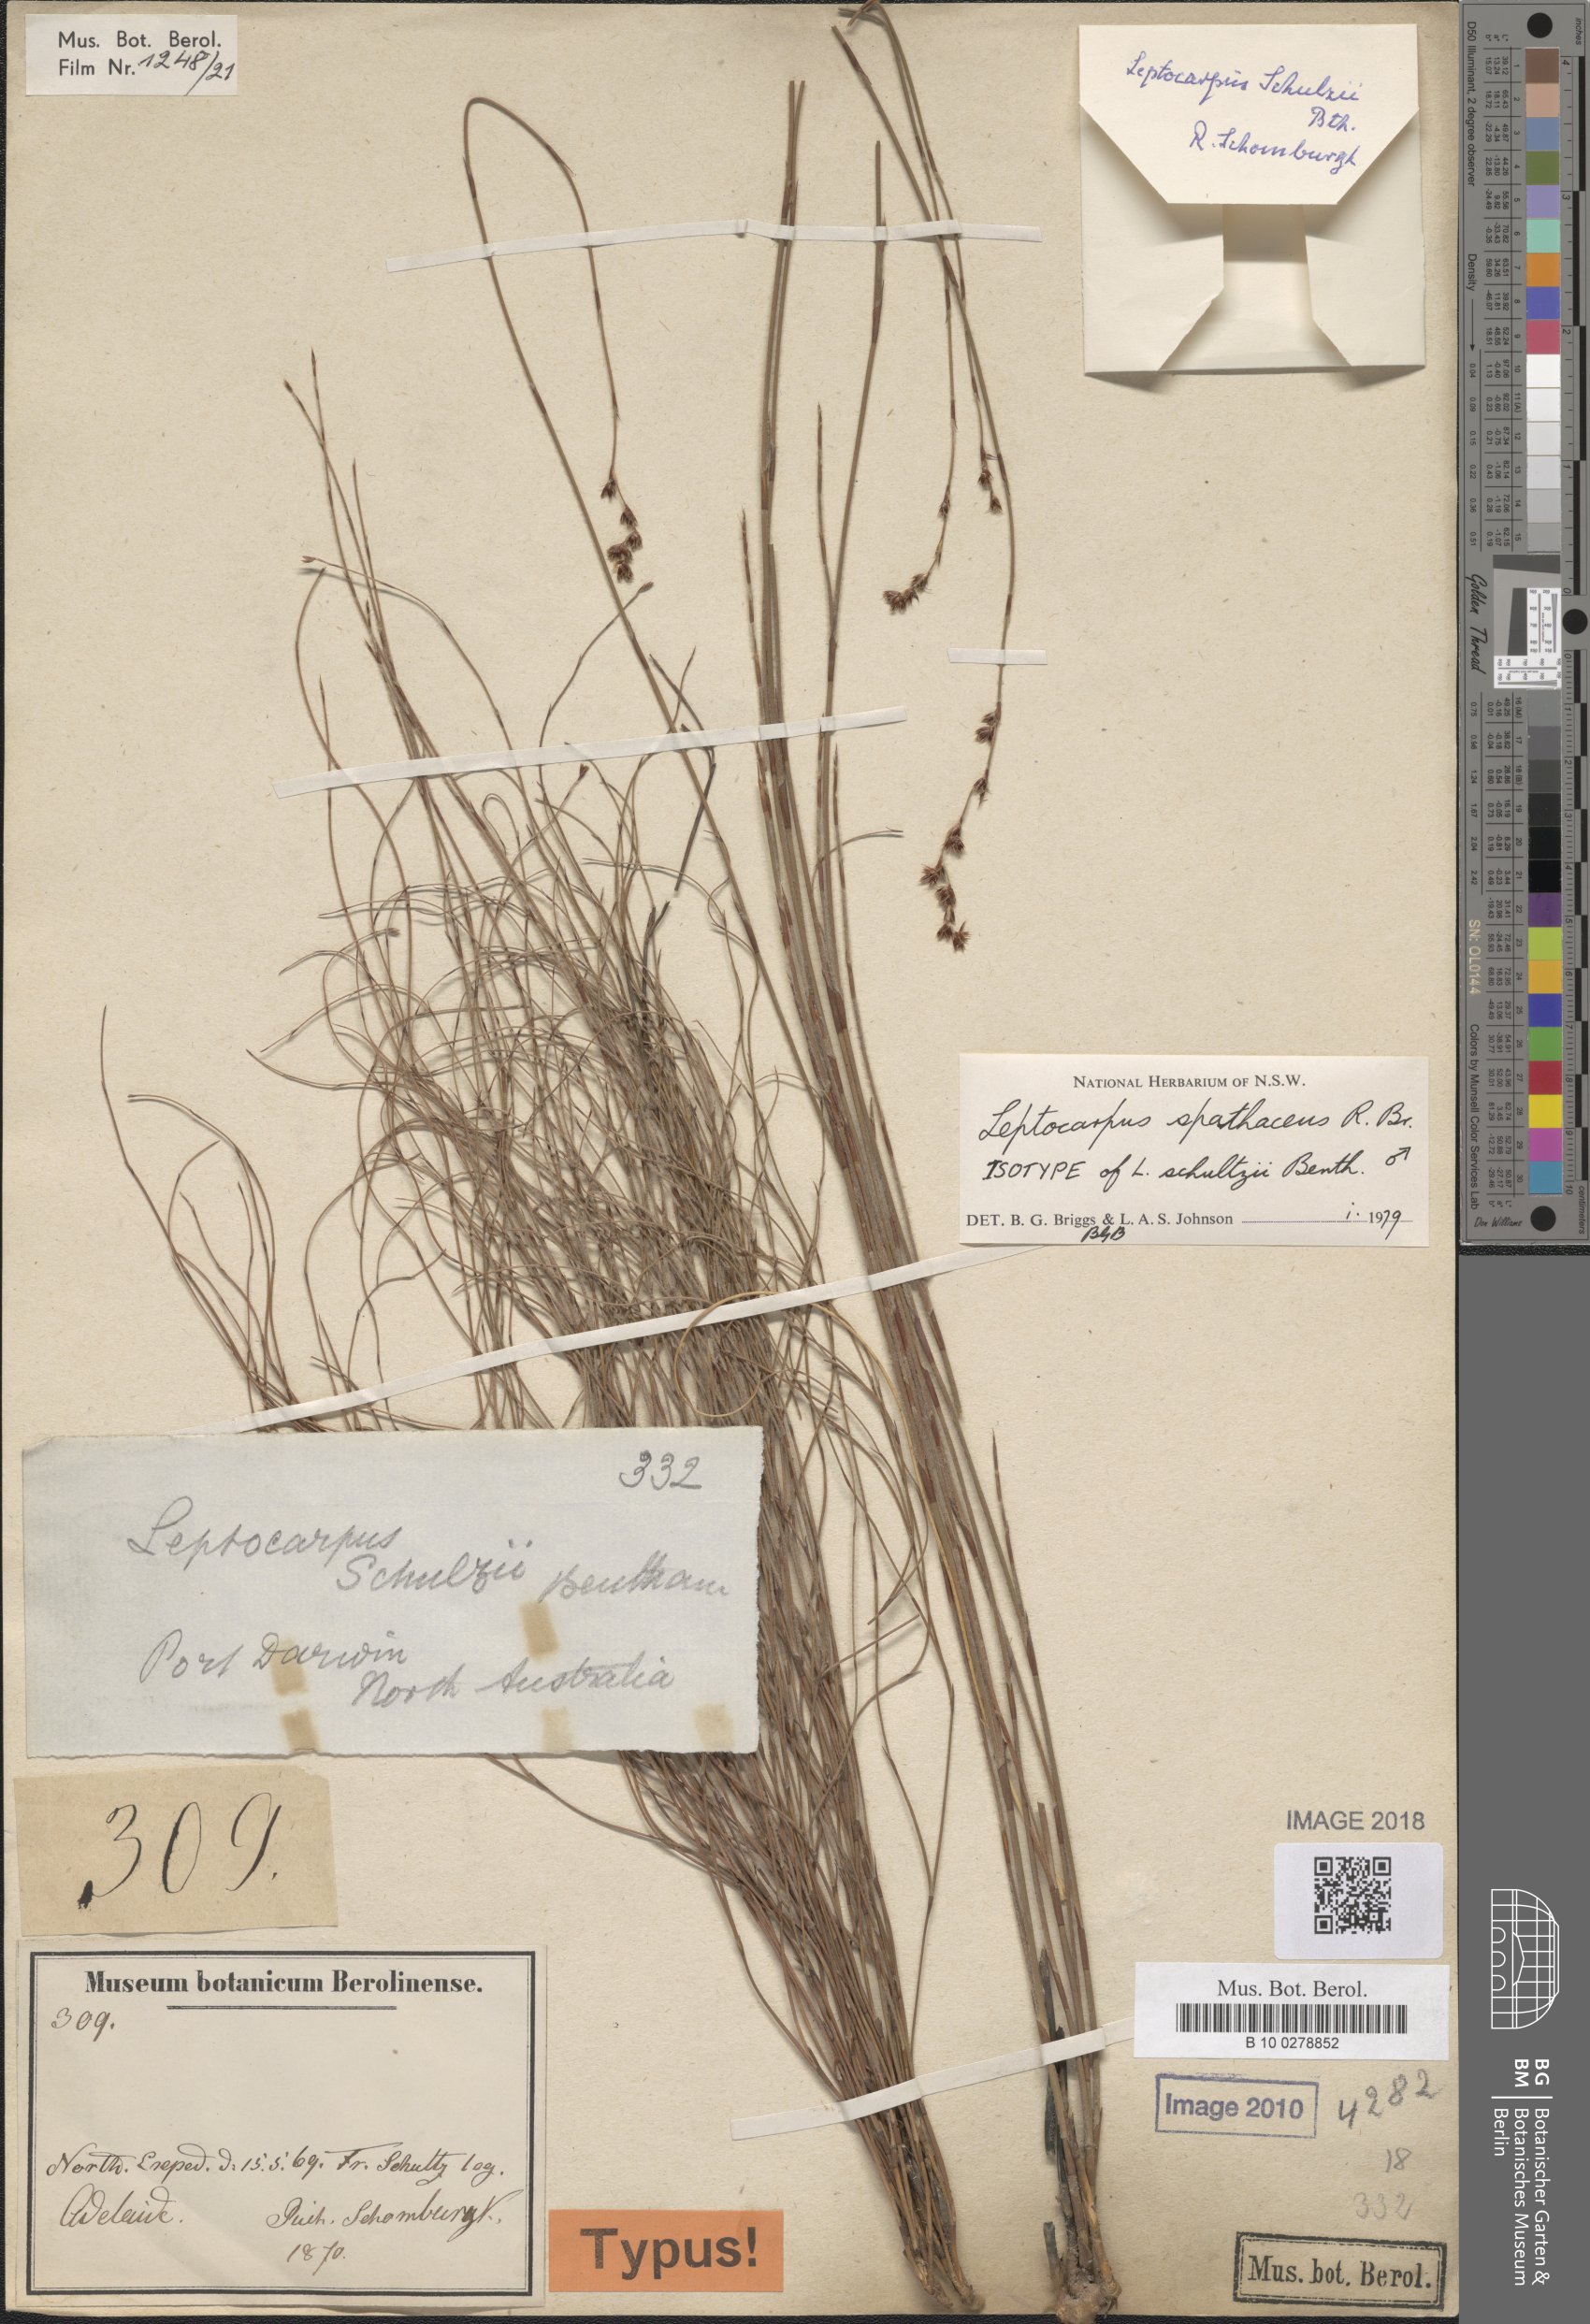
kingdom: Plantae
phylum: Tracheophyta
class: Liliopsida
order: Poales
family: Restionaceae
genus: Dapsilanthus
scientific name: Dapsilanthus spathaceus
